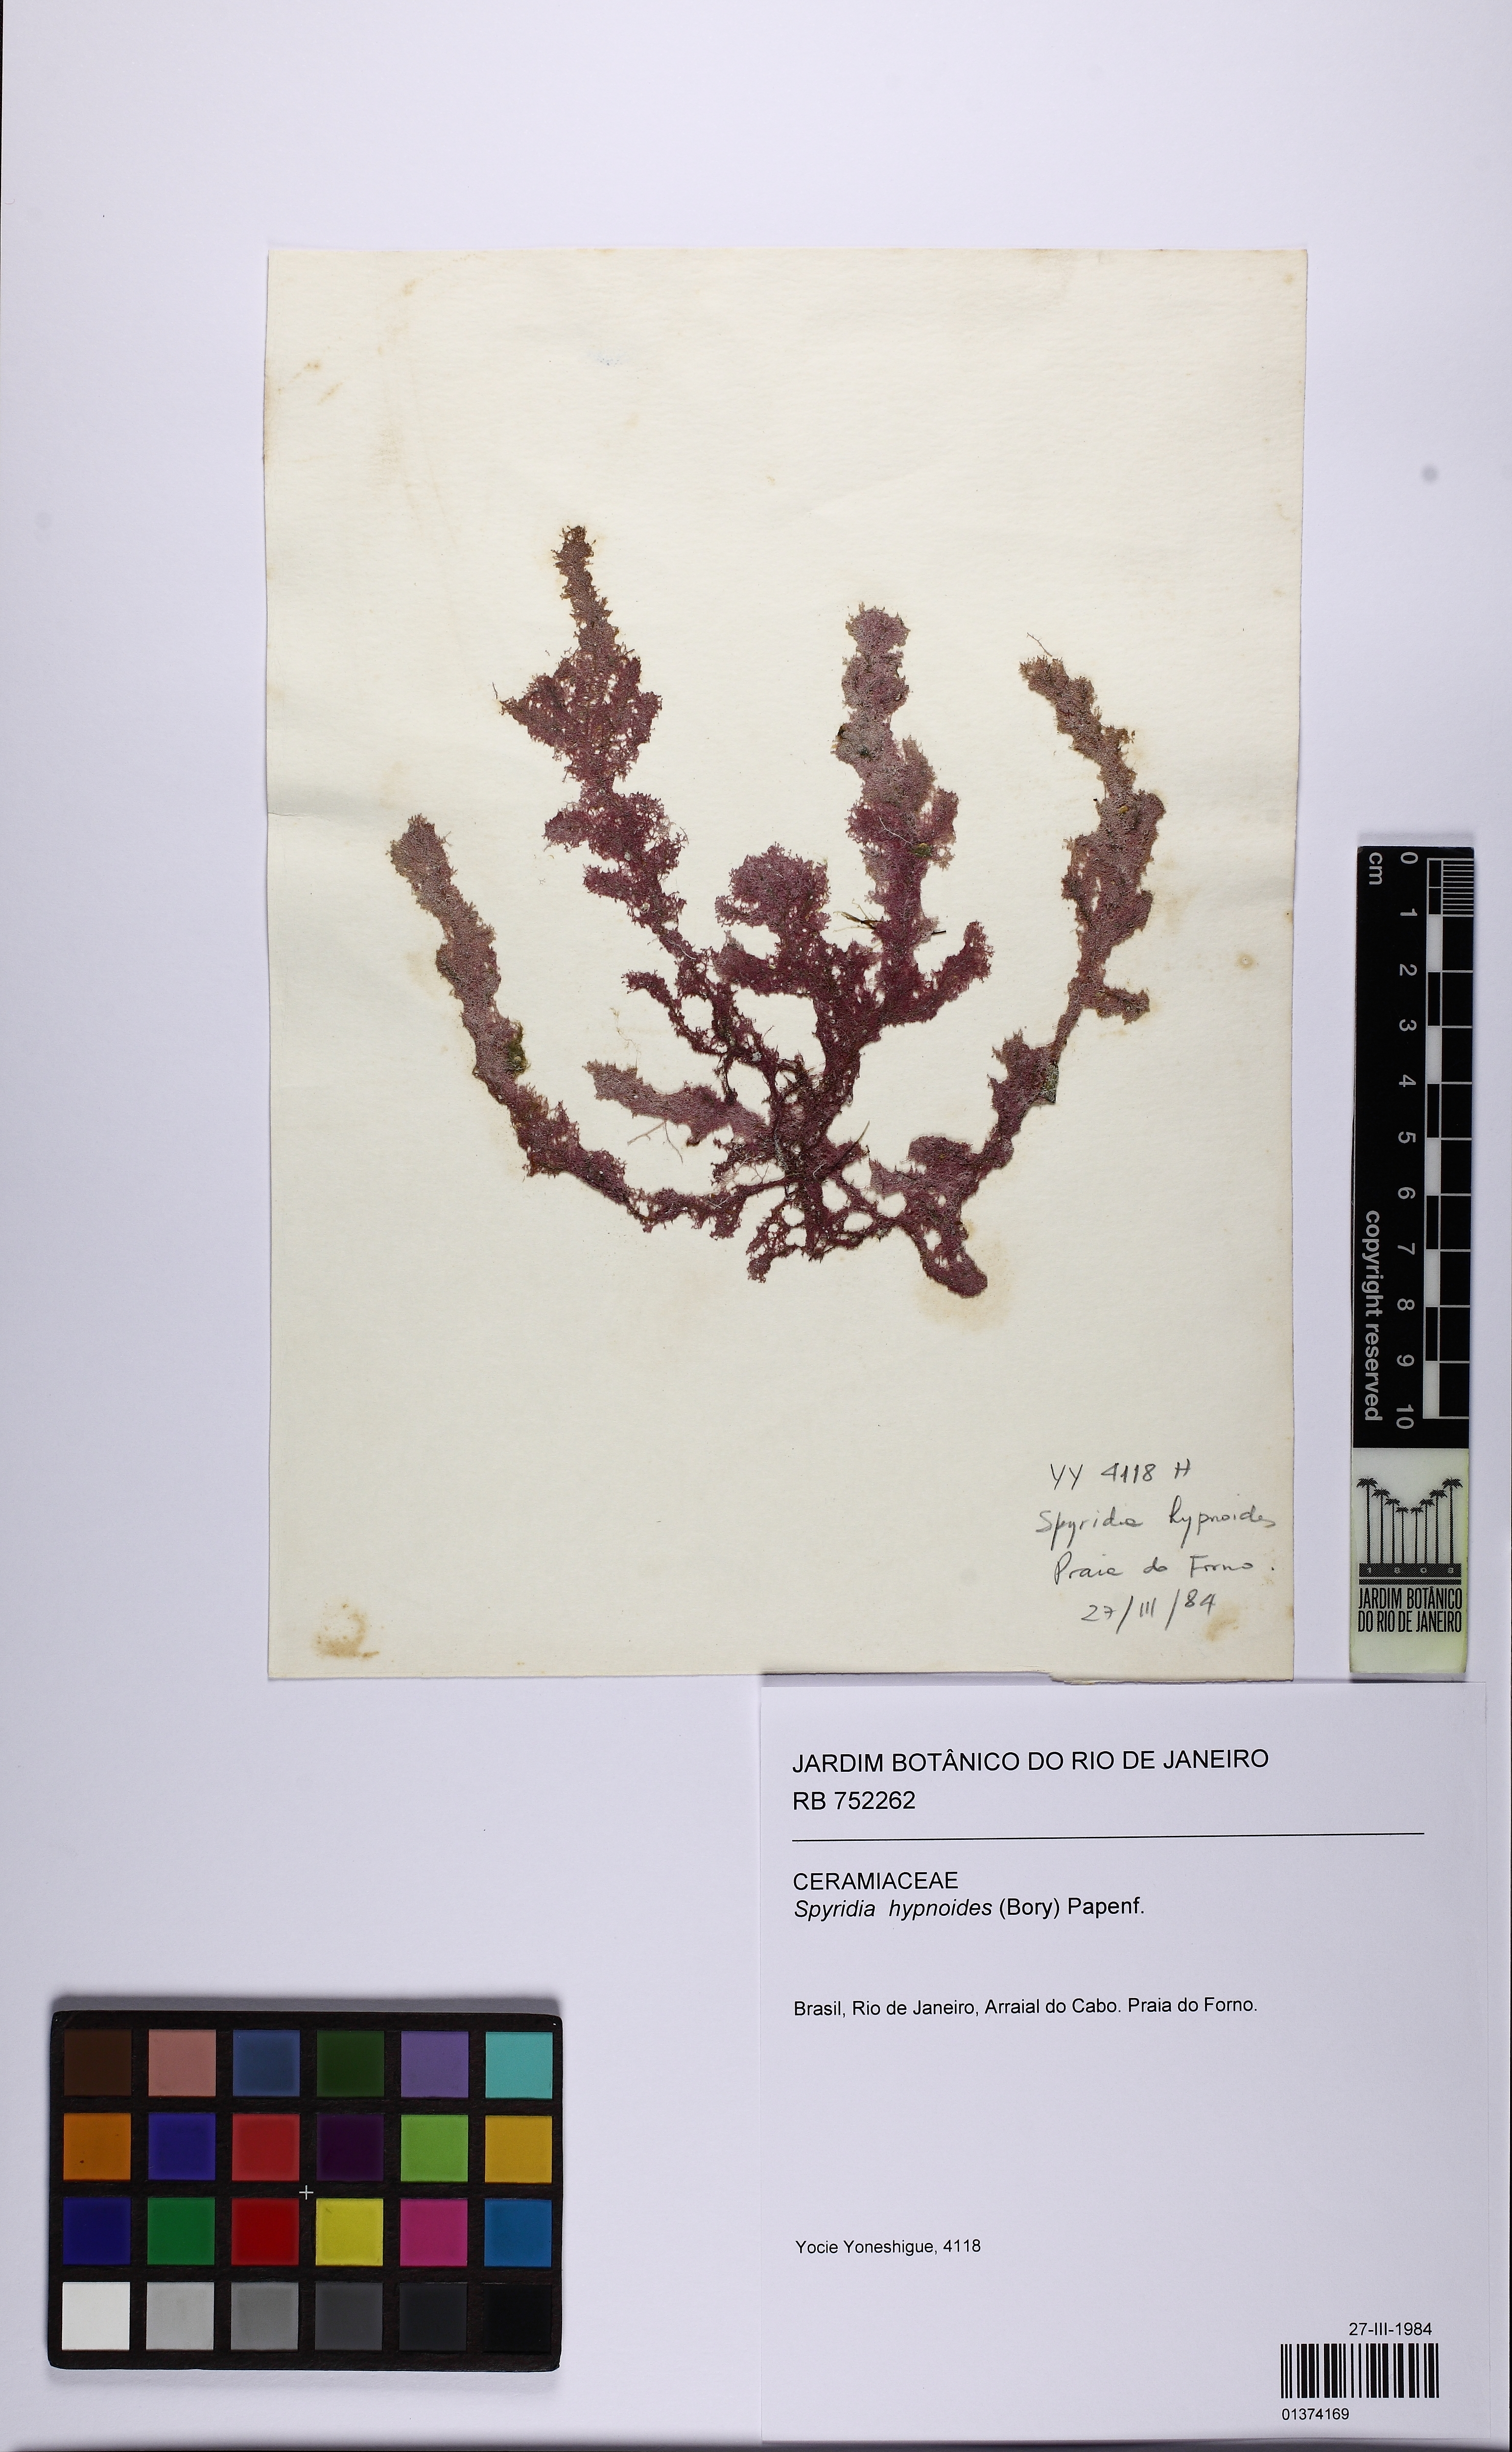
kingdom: Plantae
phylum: Rhodophyta
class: Florideophyceae
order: Ceramiales
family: Spyridiaceae
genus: Spyridia
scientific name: Spyridia hypnoides
